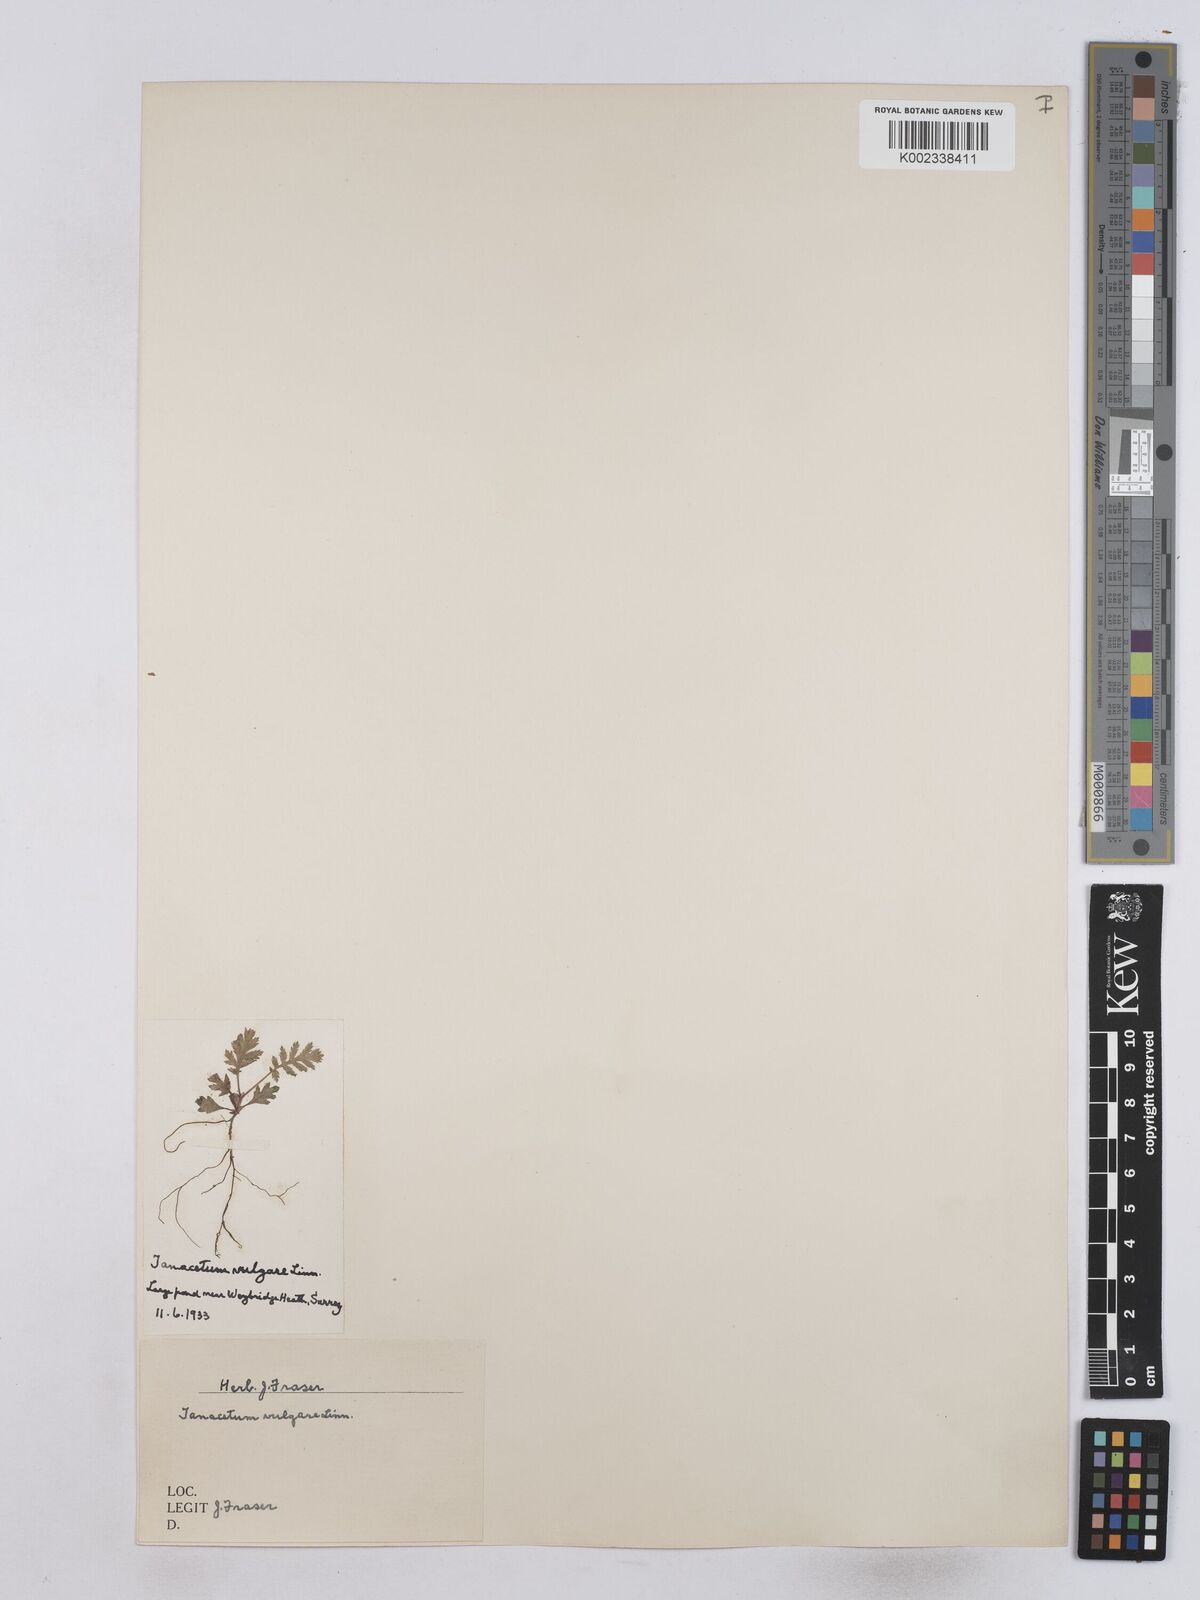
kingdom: Plantae
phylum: Tracheophyta
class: Magnoliopsida
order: Asterales
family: Asteraceae
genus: Tanacetum
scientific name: Tanacetum vulgare
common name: Common tansy
